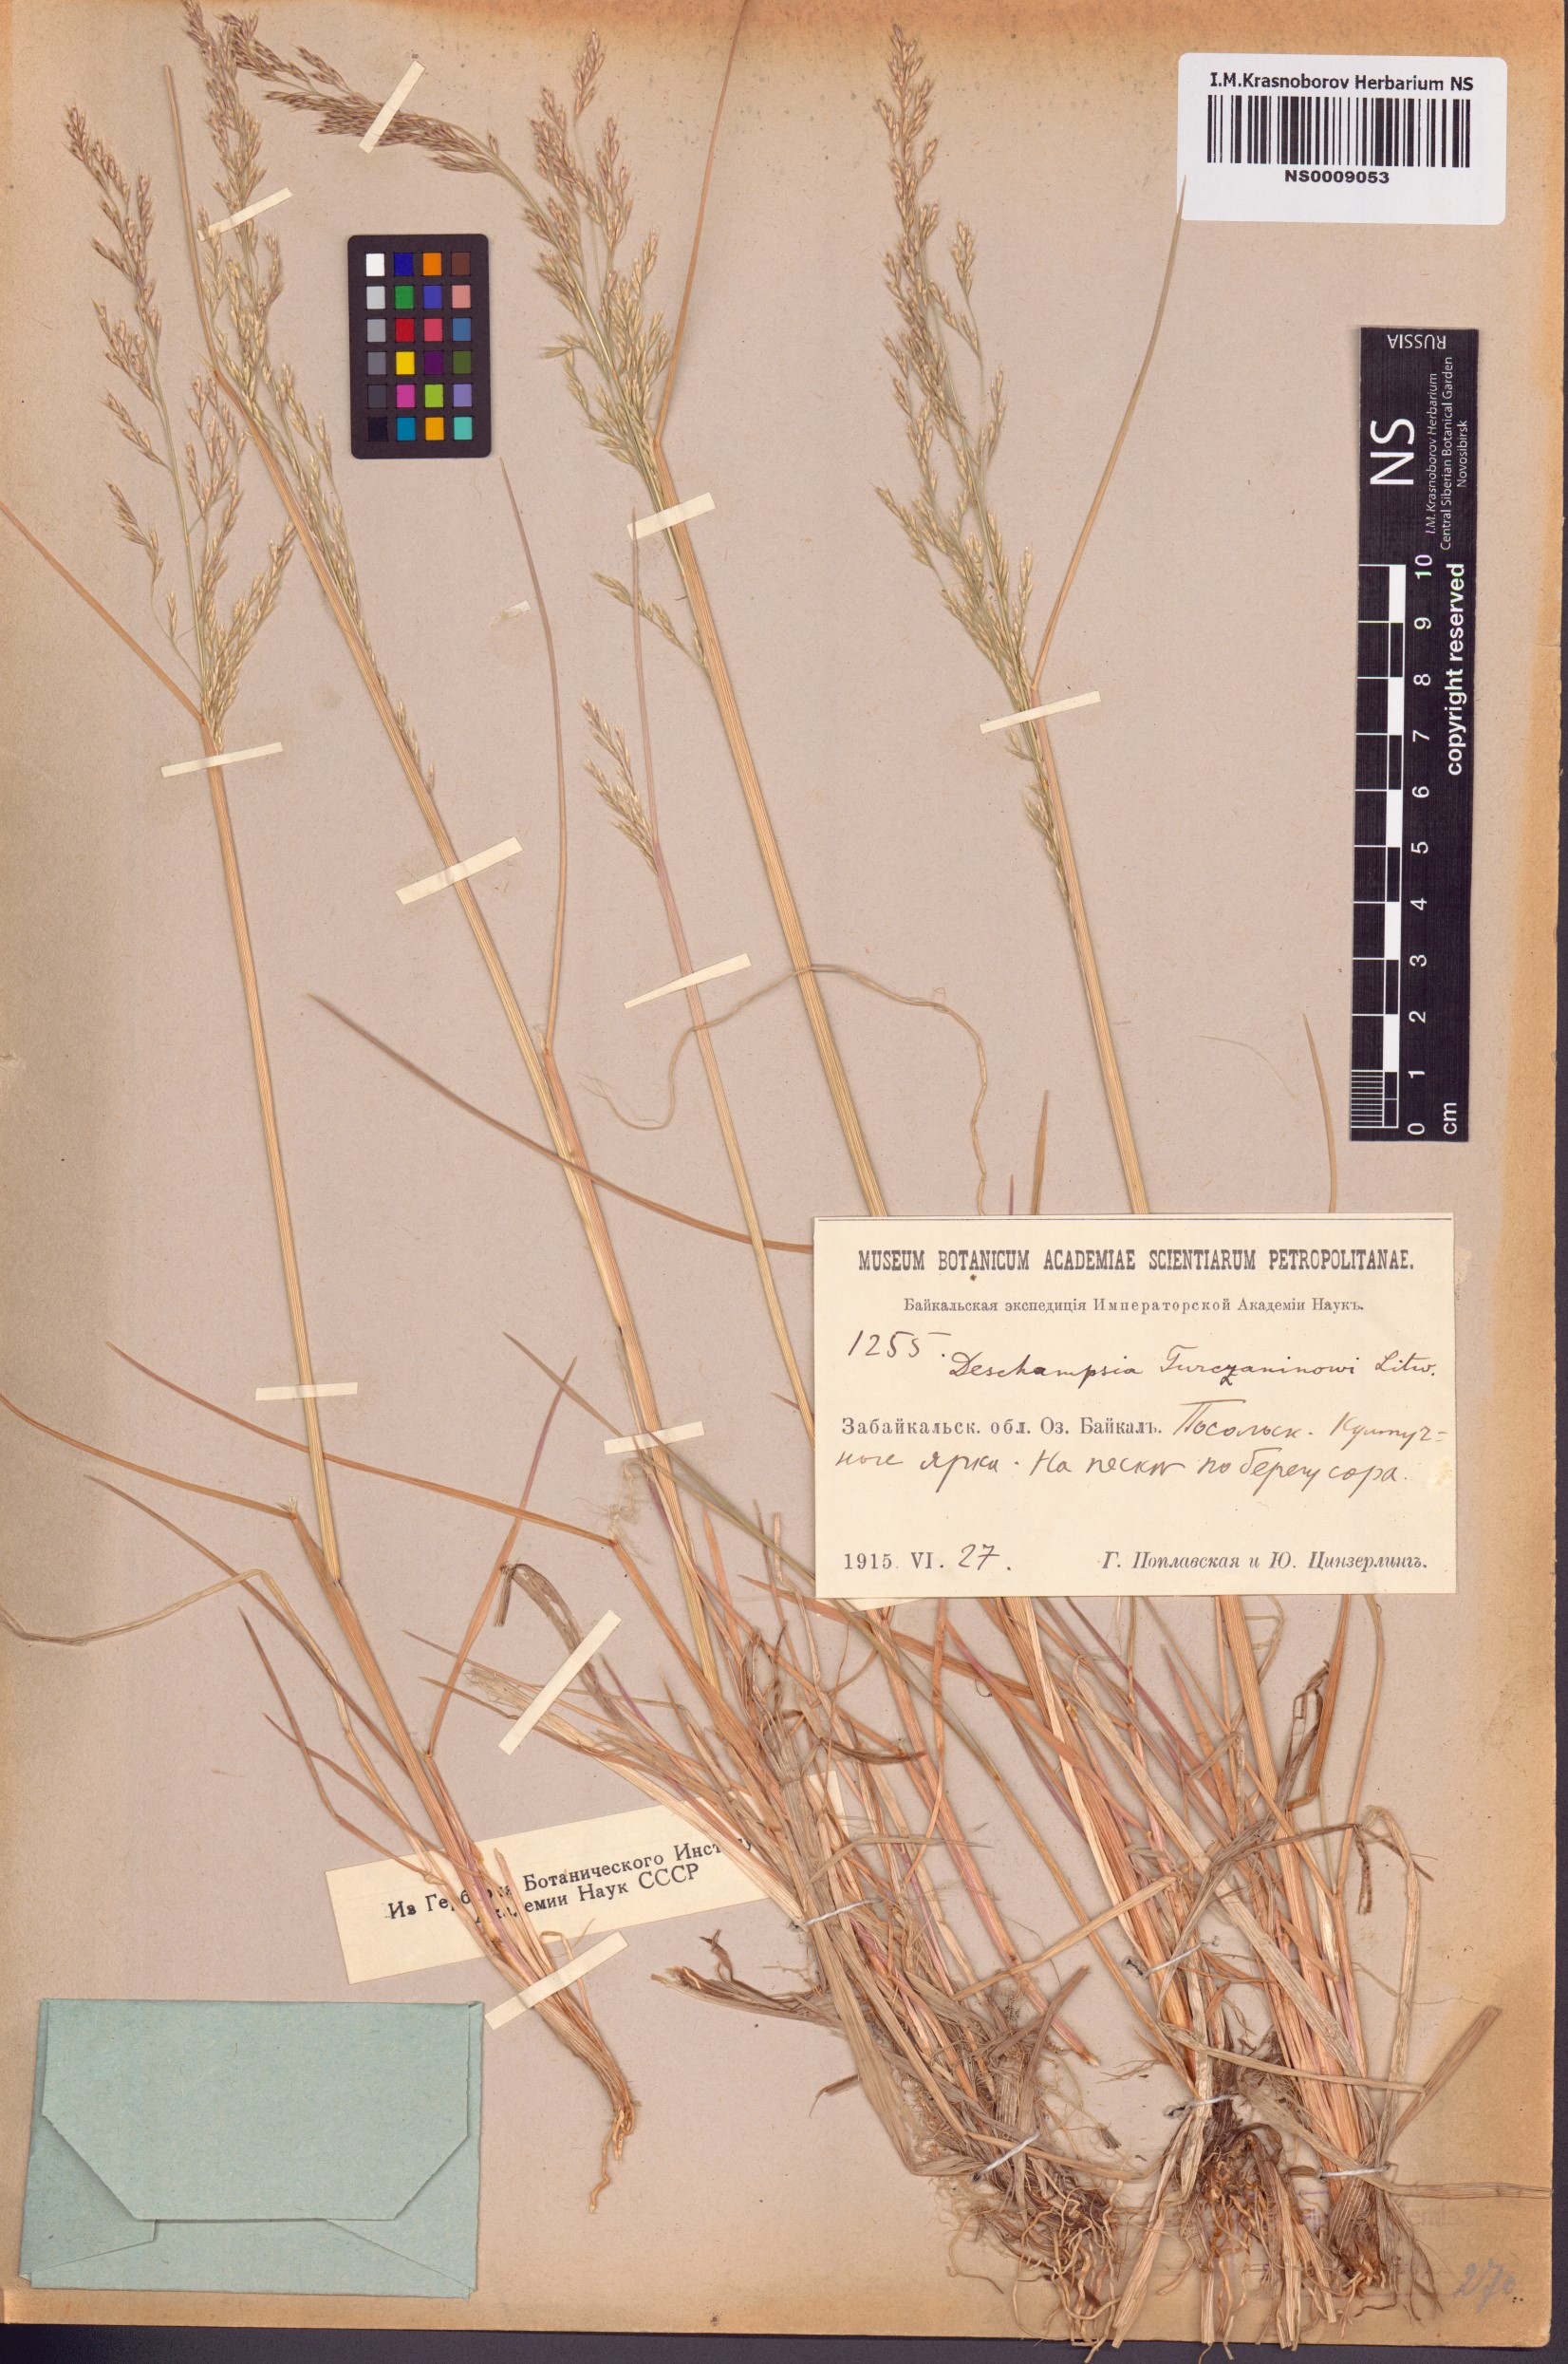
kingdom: Plantae
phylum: Tracheophyta
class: Liliopsida
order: Poales
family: Poaceae
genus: Deschampsia
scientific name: Deschampsia cespitosa
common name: Tufted hair-grass
